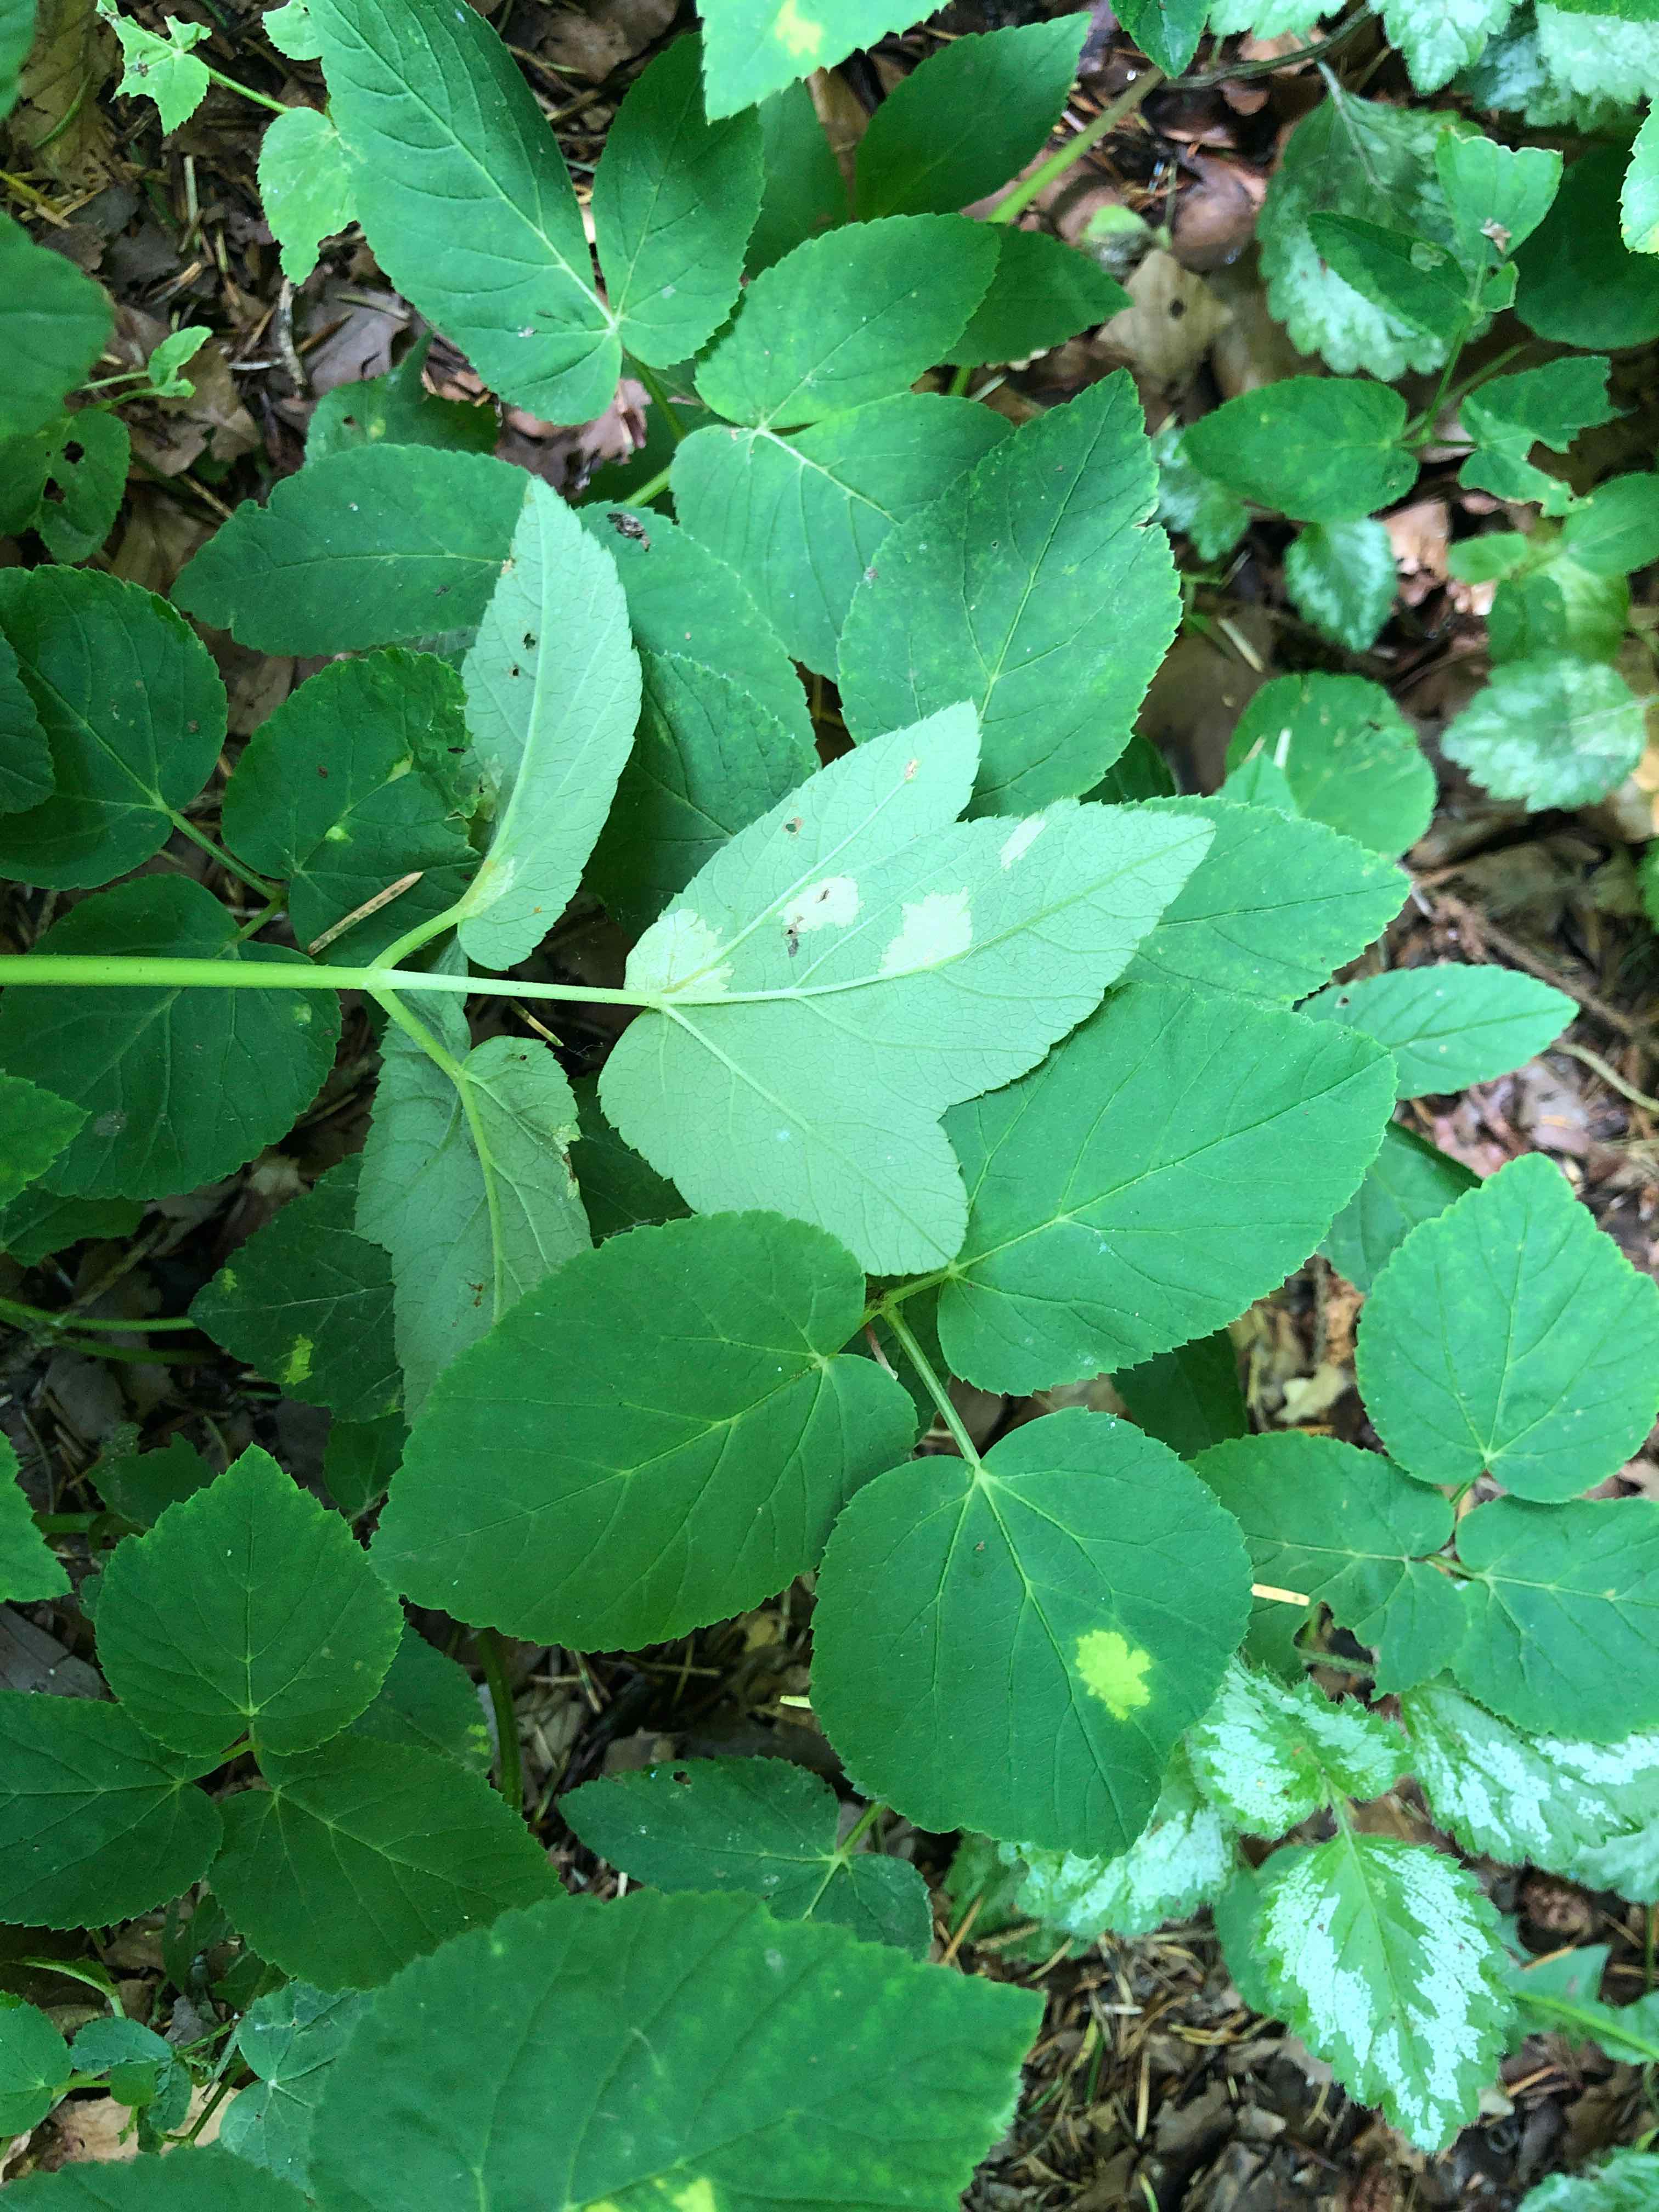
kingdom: Chromista
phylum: Oomycota
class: Peronosporea
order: Peronosporales
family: Peronosporaceae
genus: Peronospora
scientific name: Peronospora crustosa
